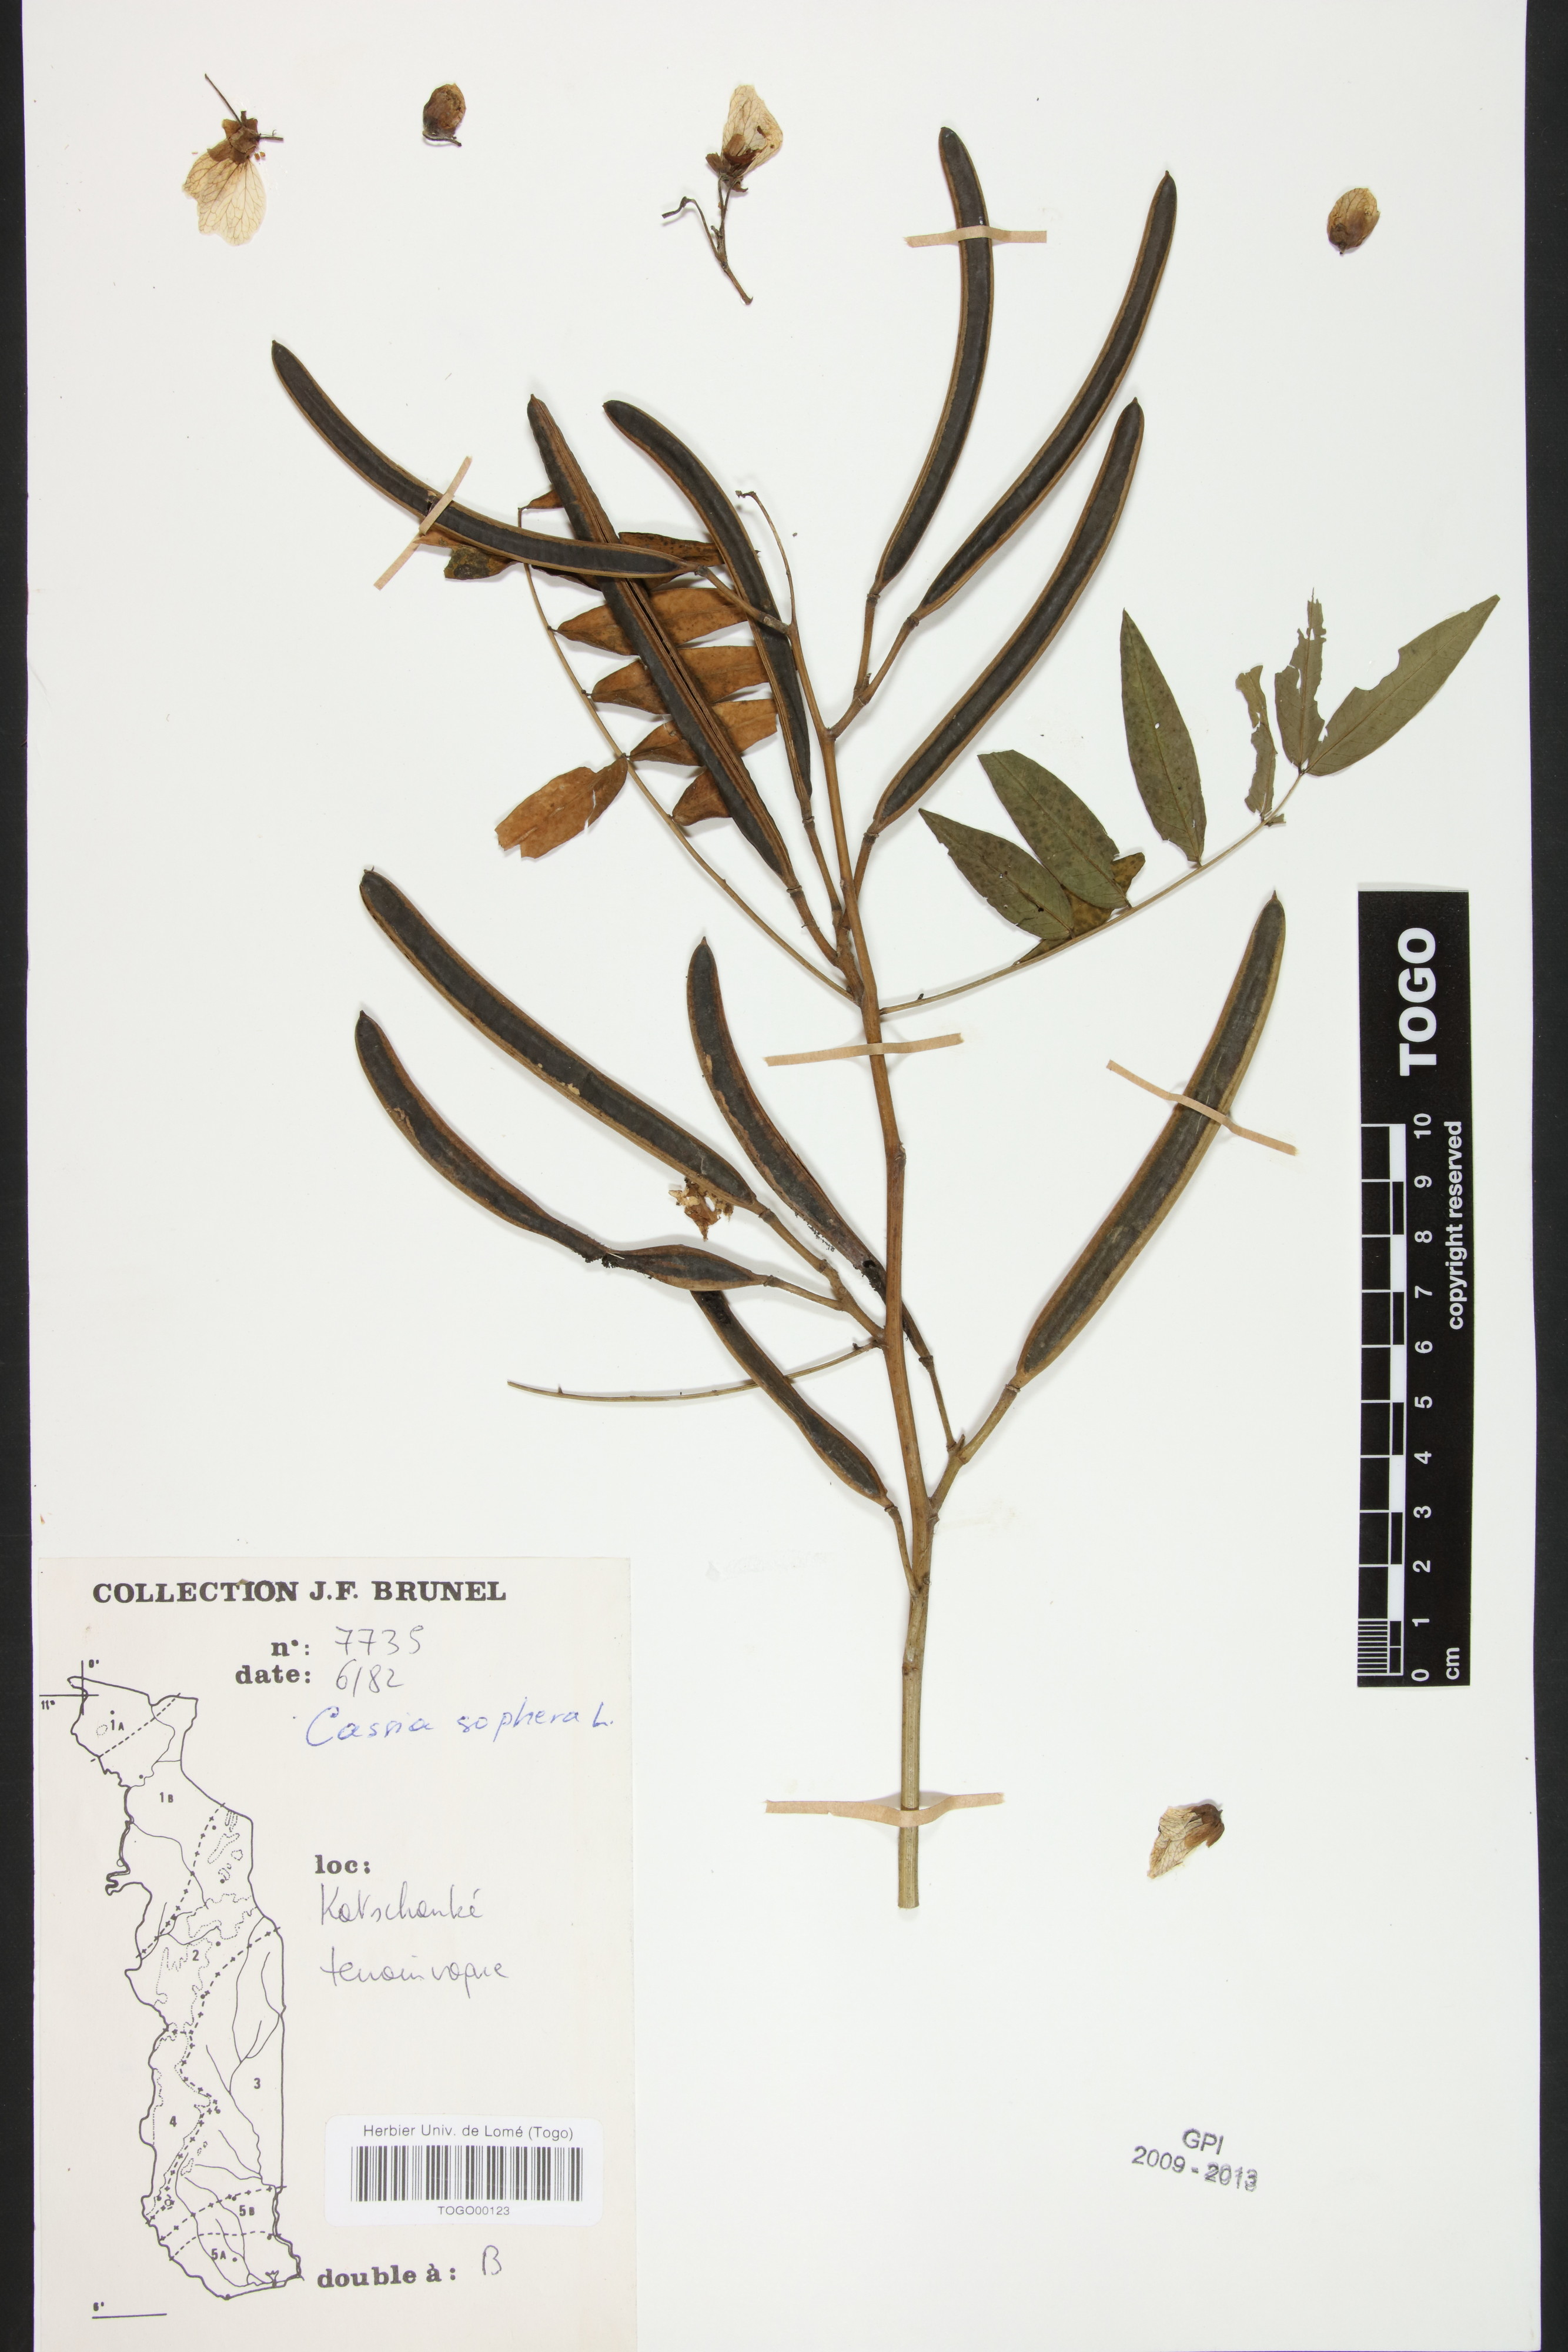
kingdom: Plantae
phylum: Tracheophyta
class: Magnoliopsida
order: Fabales
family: Fabaceae
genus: Senna
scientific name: Senna sophera
